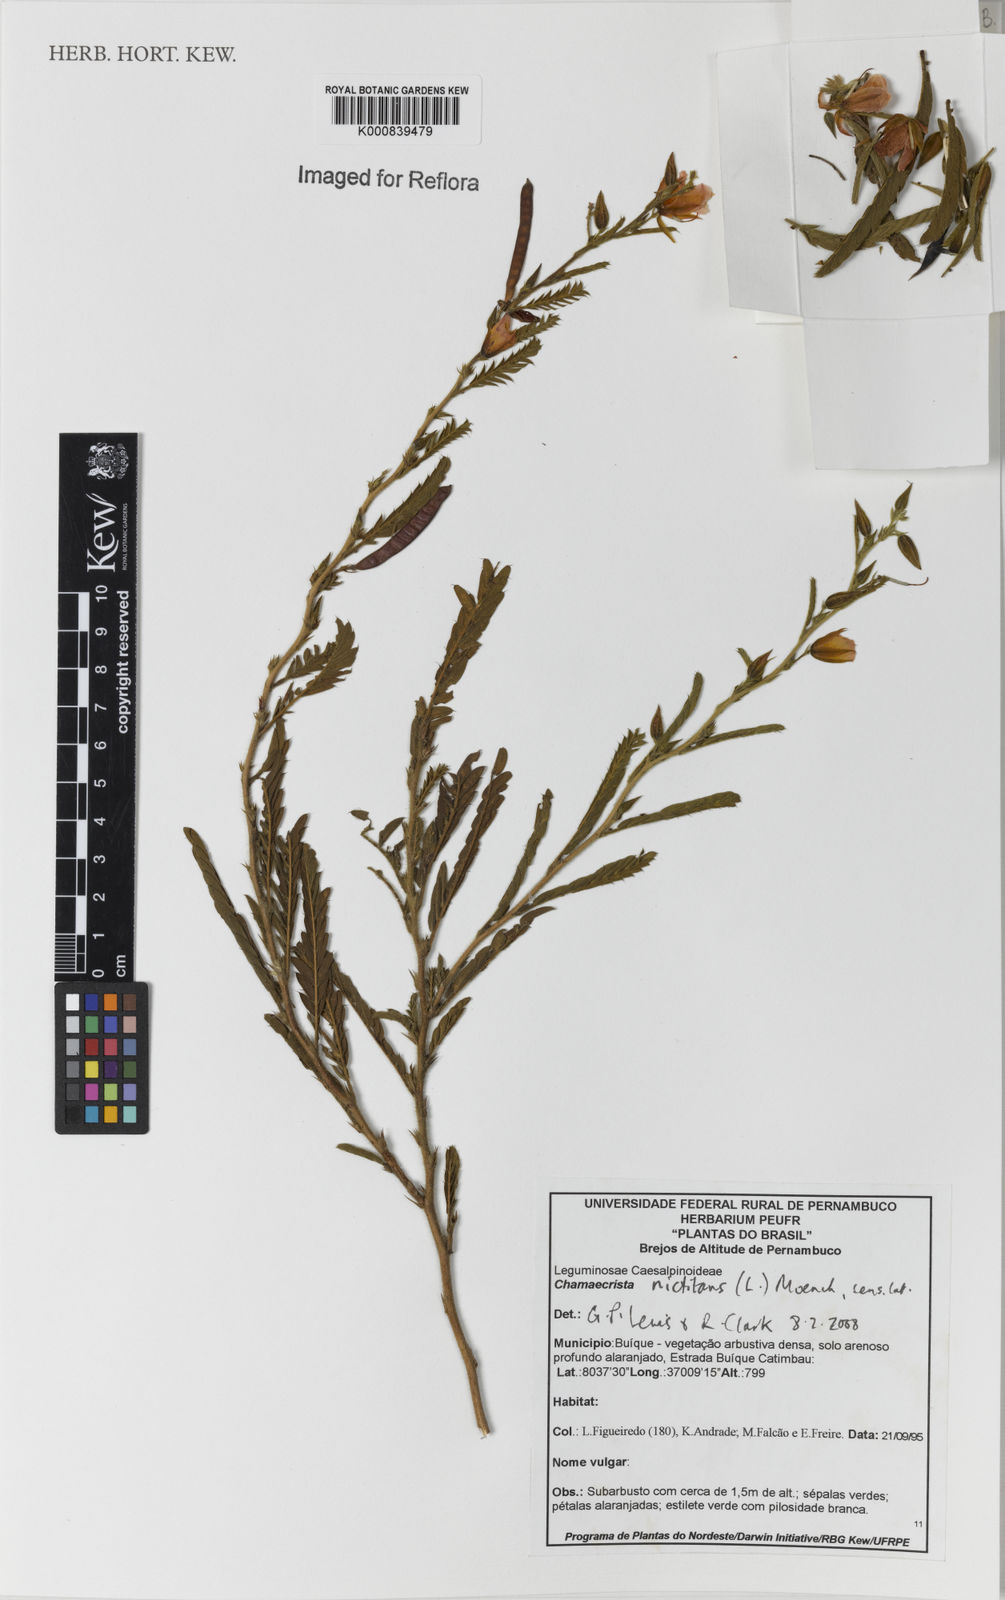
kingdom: Plantae
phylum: Tracheophyta
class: Magnoliopsida
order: Fabales
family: Fabaceae
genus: Chamaecrista
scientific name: Chamaecrista nictitans
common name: Sensitive cassia
